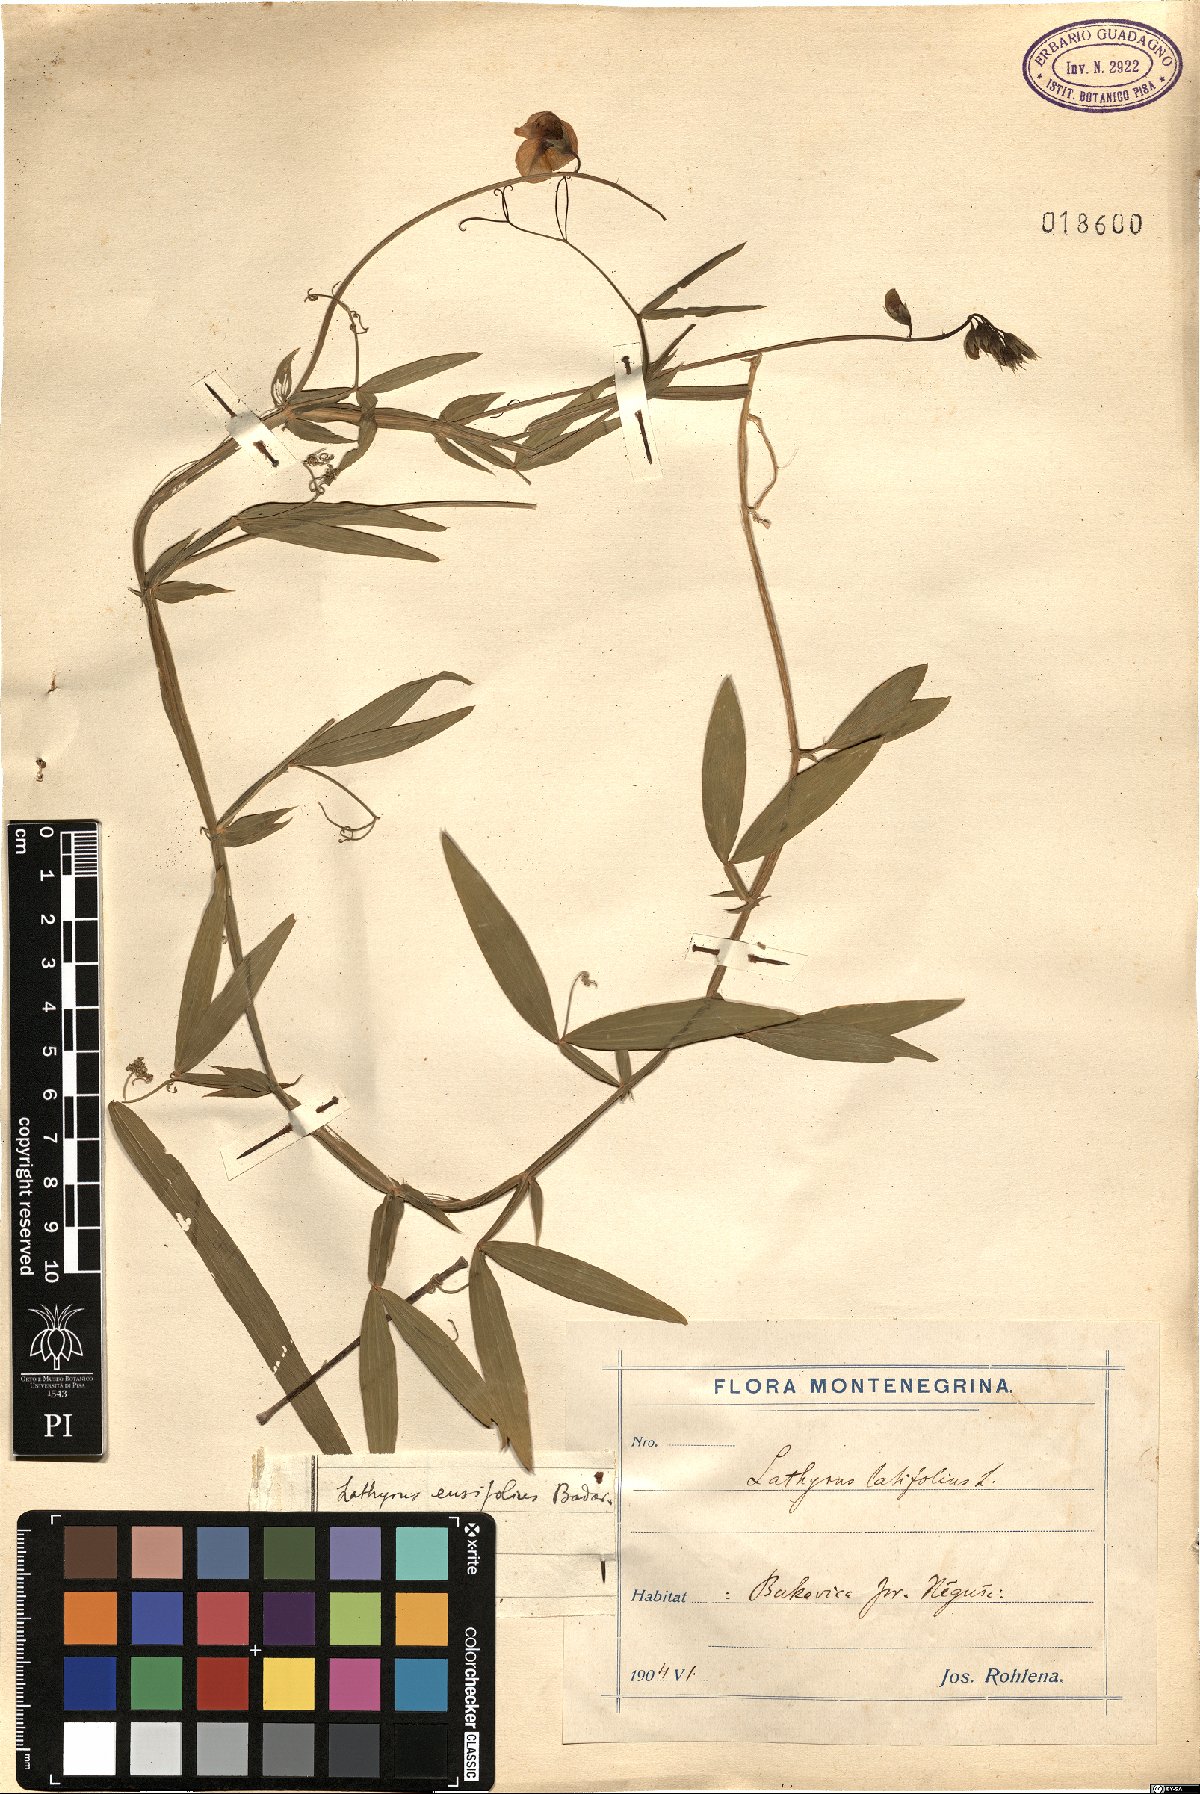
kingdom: Plantae
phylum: Tracheophyta
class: Magnoliopsida
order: Fabales
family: Fabaceae
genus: Lathyrus
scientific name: Lathyrus bauhini
